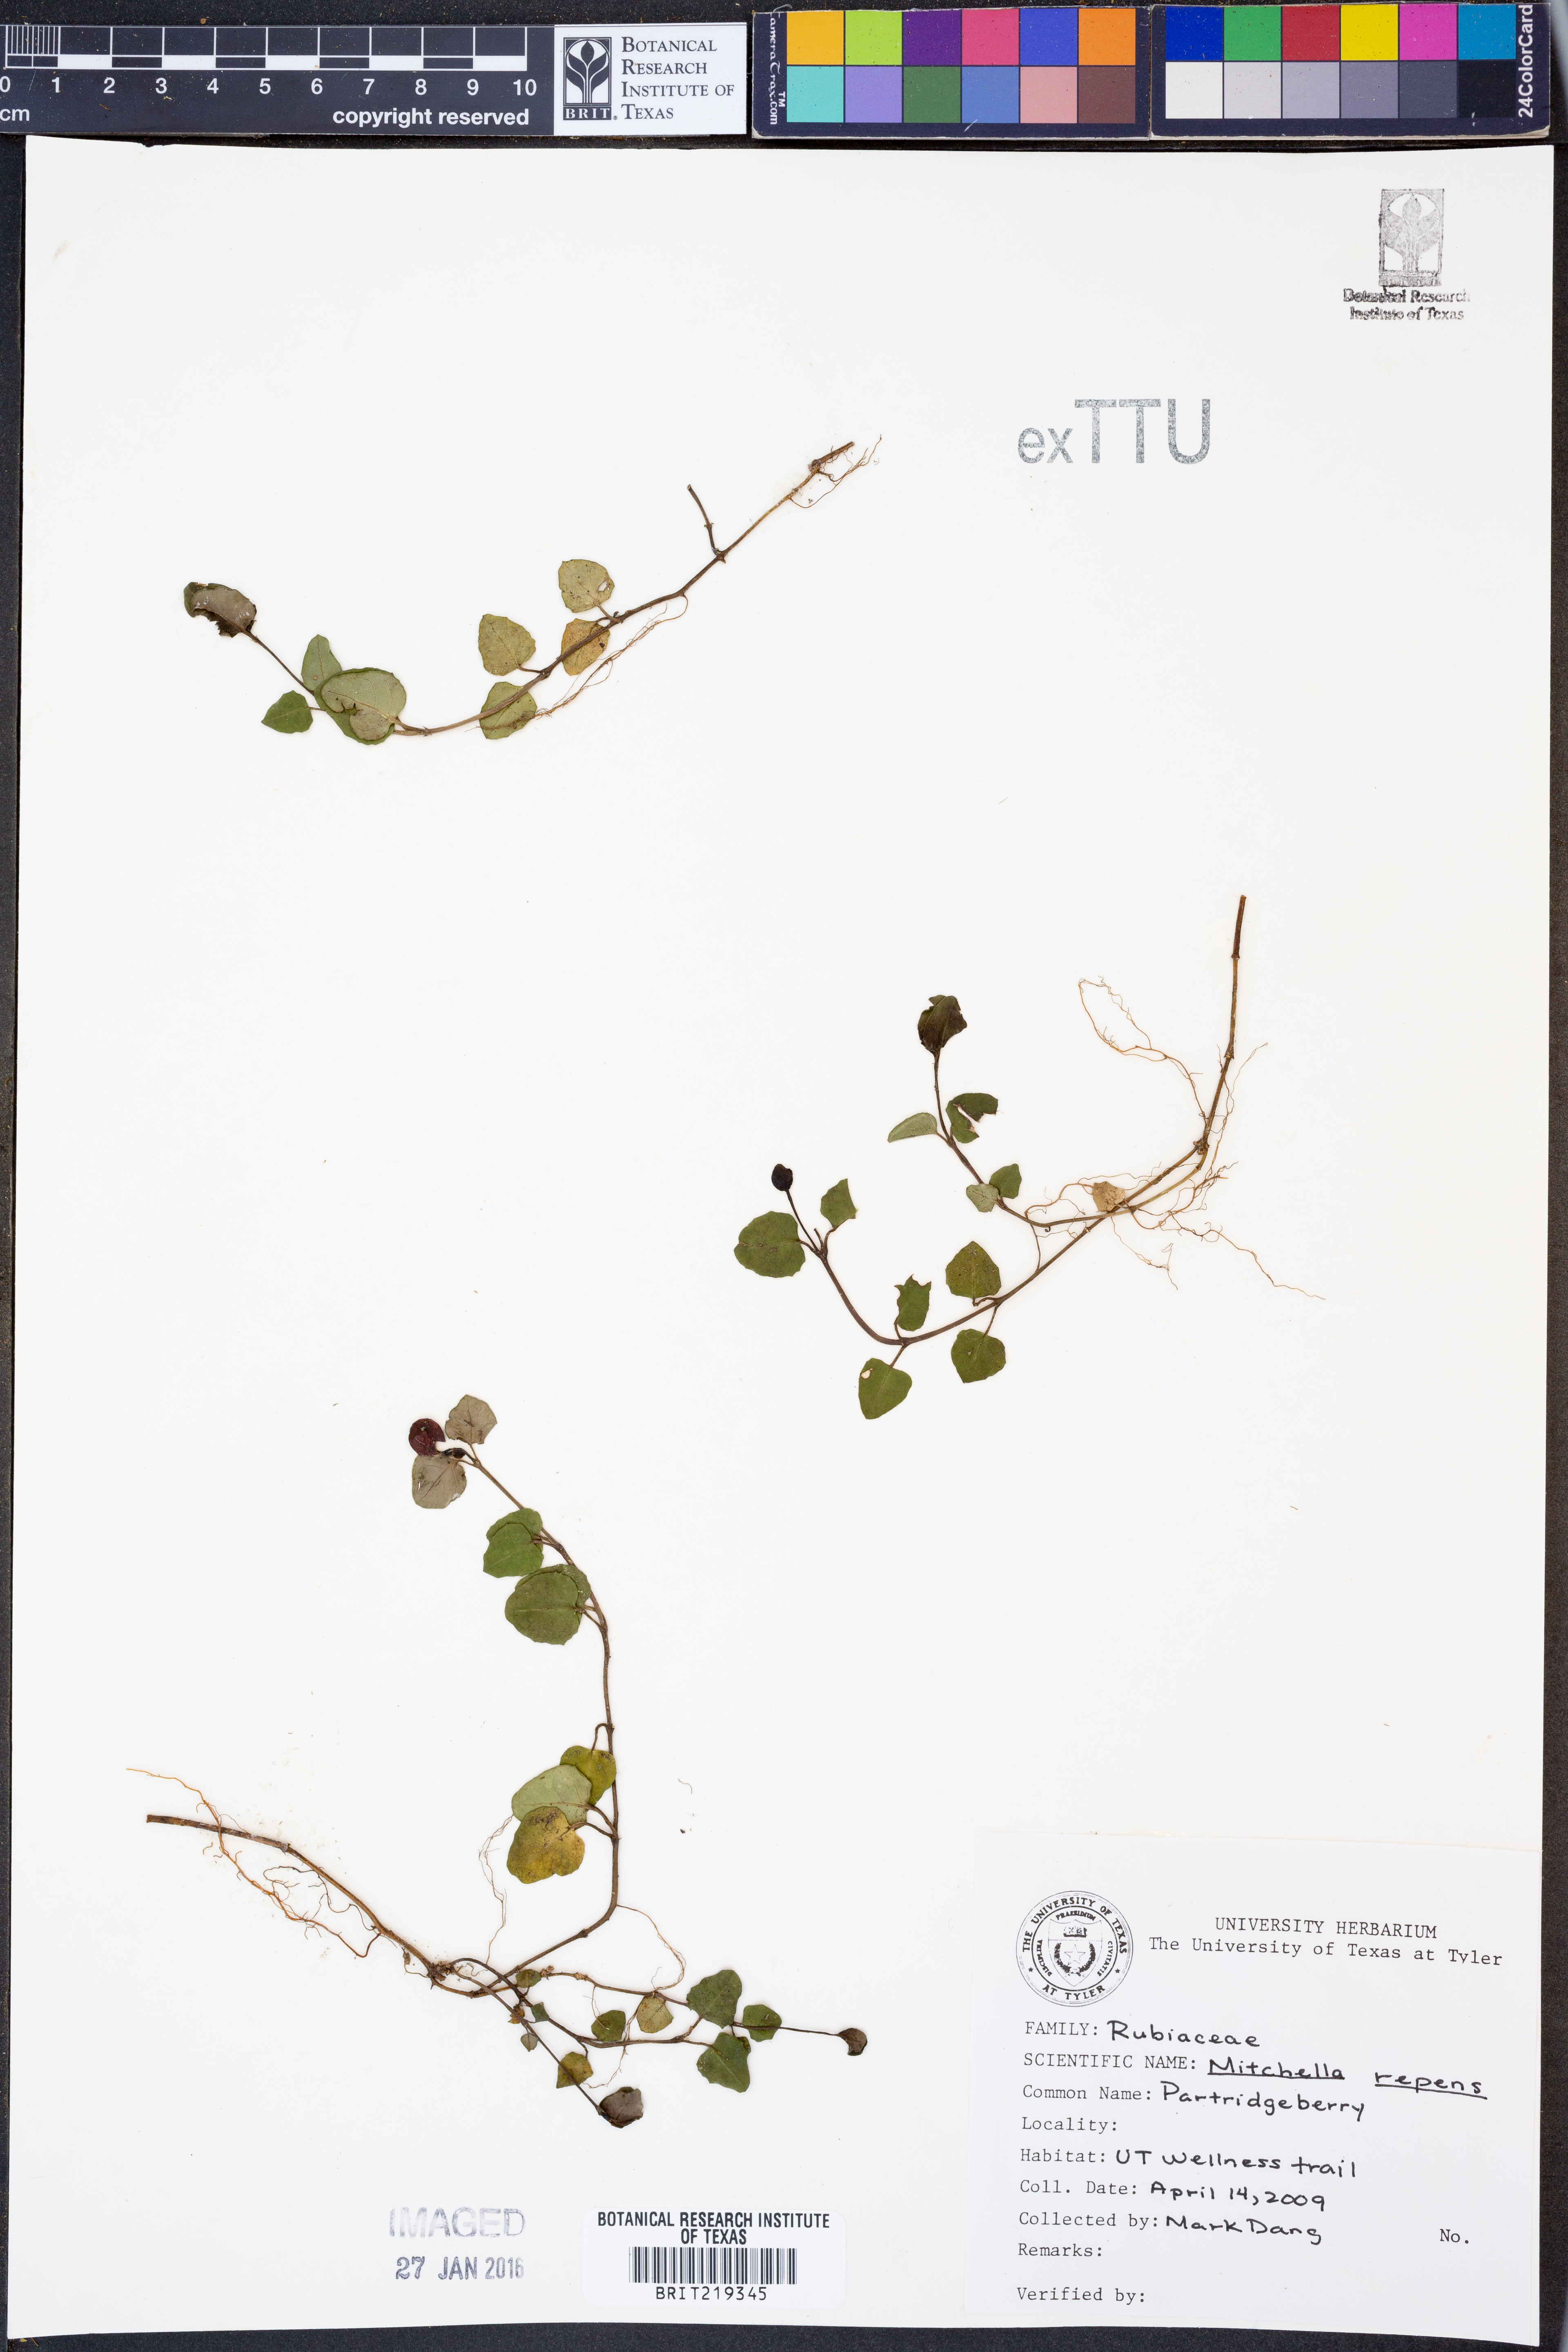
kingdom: Plantae
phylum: Tracheophyta
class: Magnoliopsida
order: Gentianales
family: Rubiaceae
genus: Mitchella
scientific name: Mitchella repens
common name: Partridge-berry
